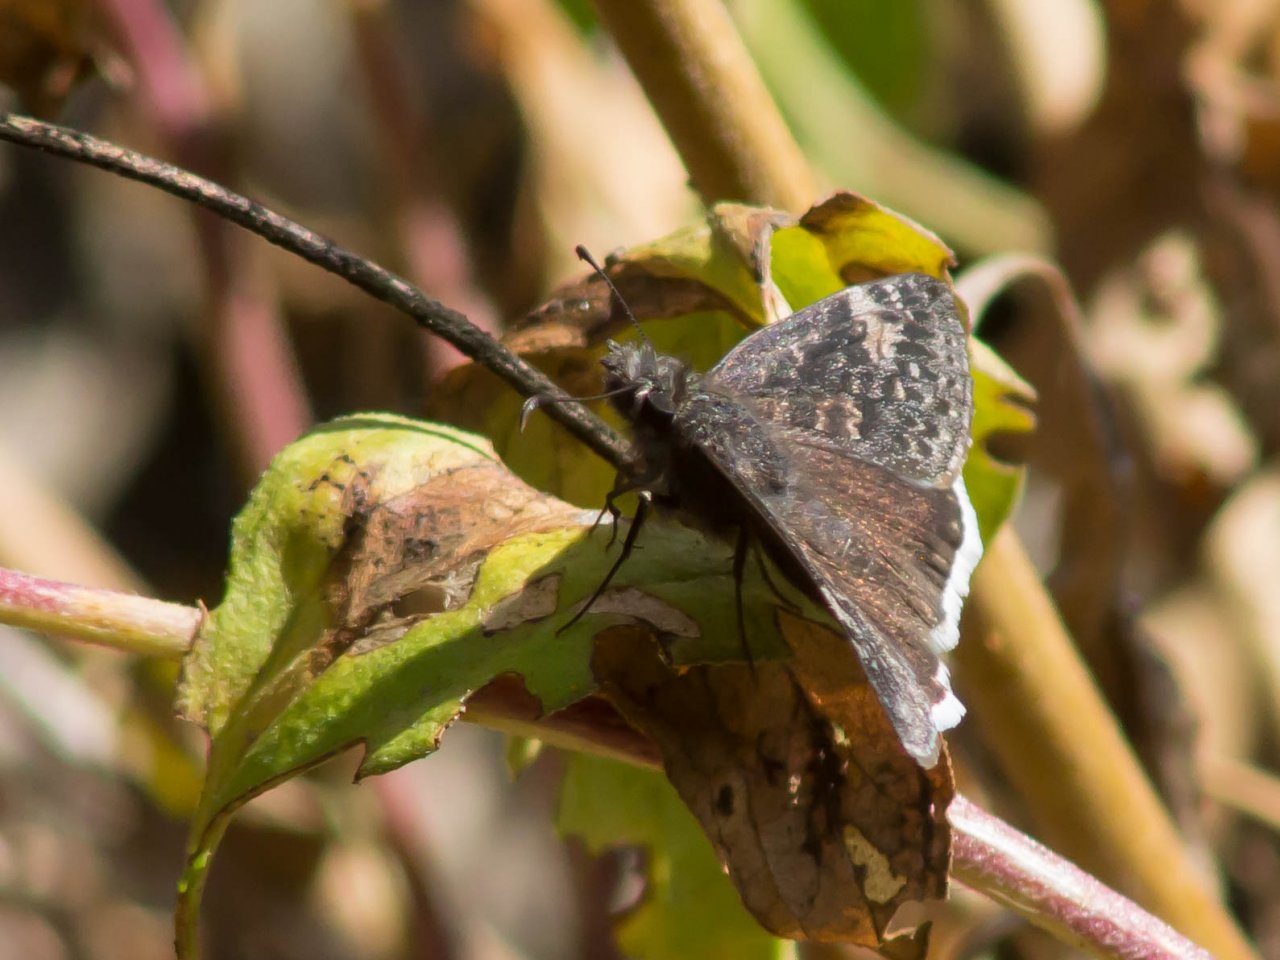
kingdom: Animalia
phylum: Arthropoda
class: Insecta
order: Lepidoptera
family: Hesperiidae
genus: Erynnis
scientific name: Erynnis funeralis
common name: Funereal Duskywing
